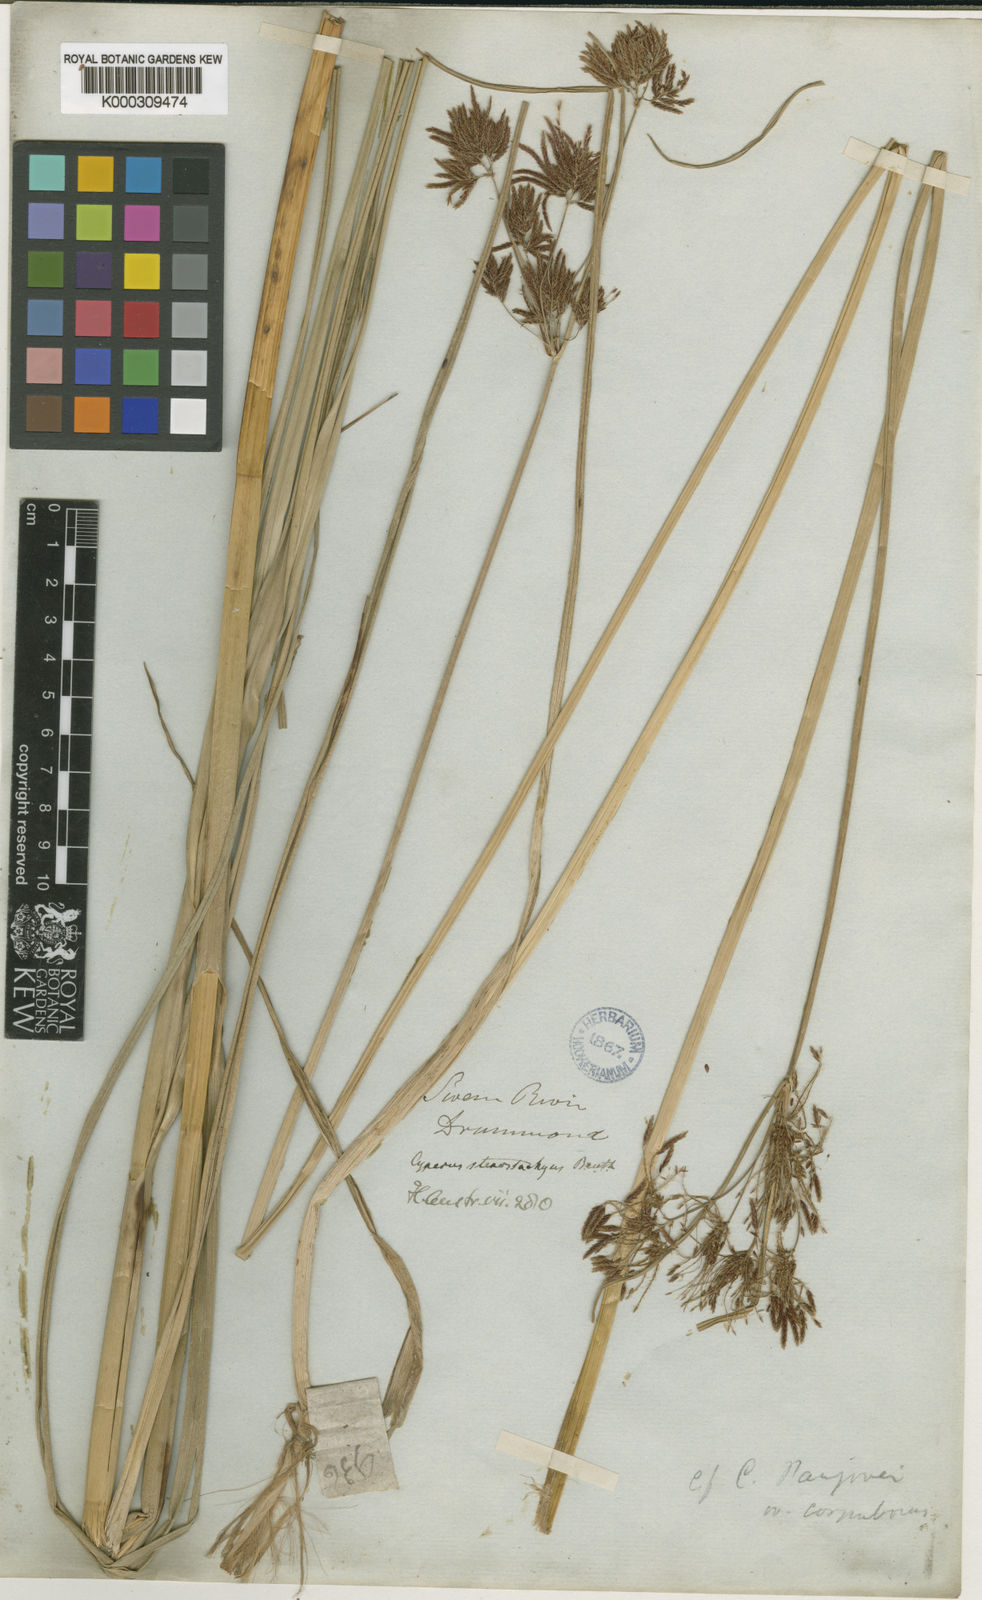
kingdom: Plantae
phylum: Tracheophyta
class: Liliopsida
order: Poales
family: Cyperaceae
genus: Cyperus
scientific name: Cyperus mitis
